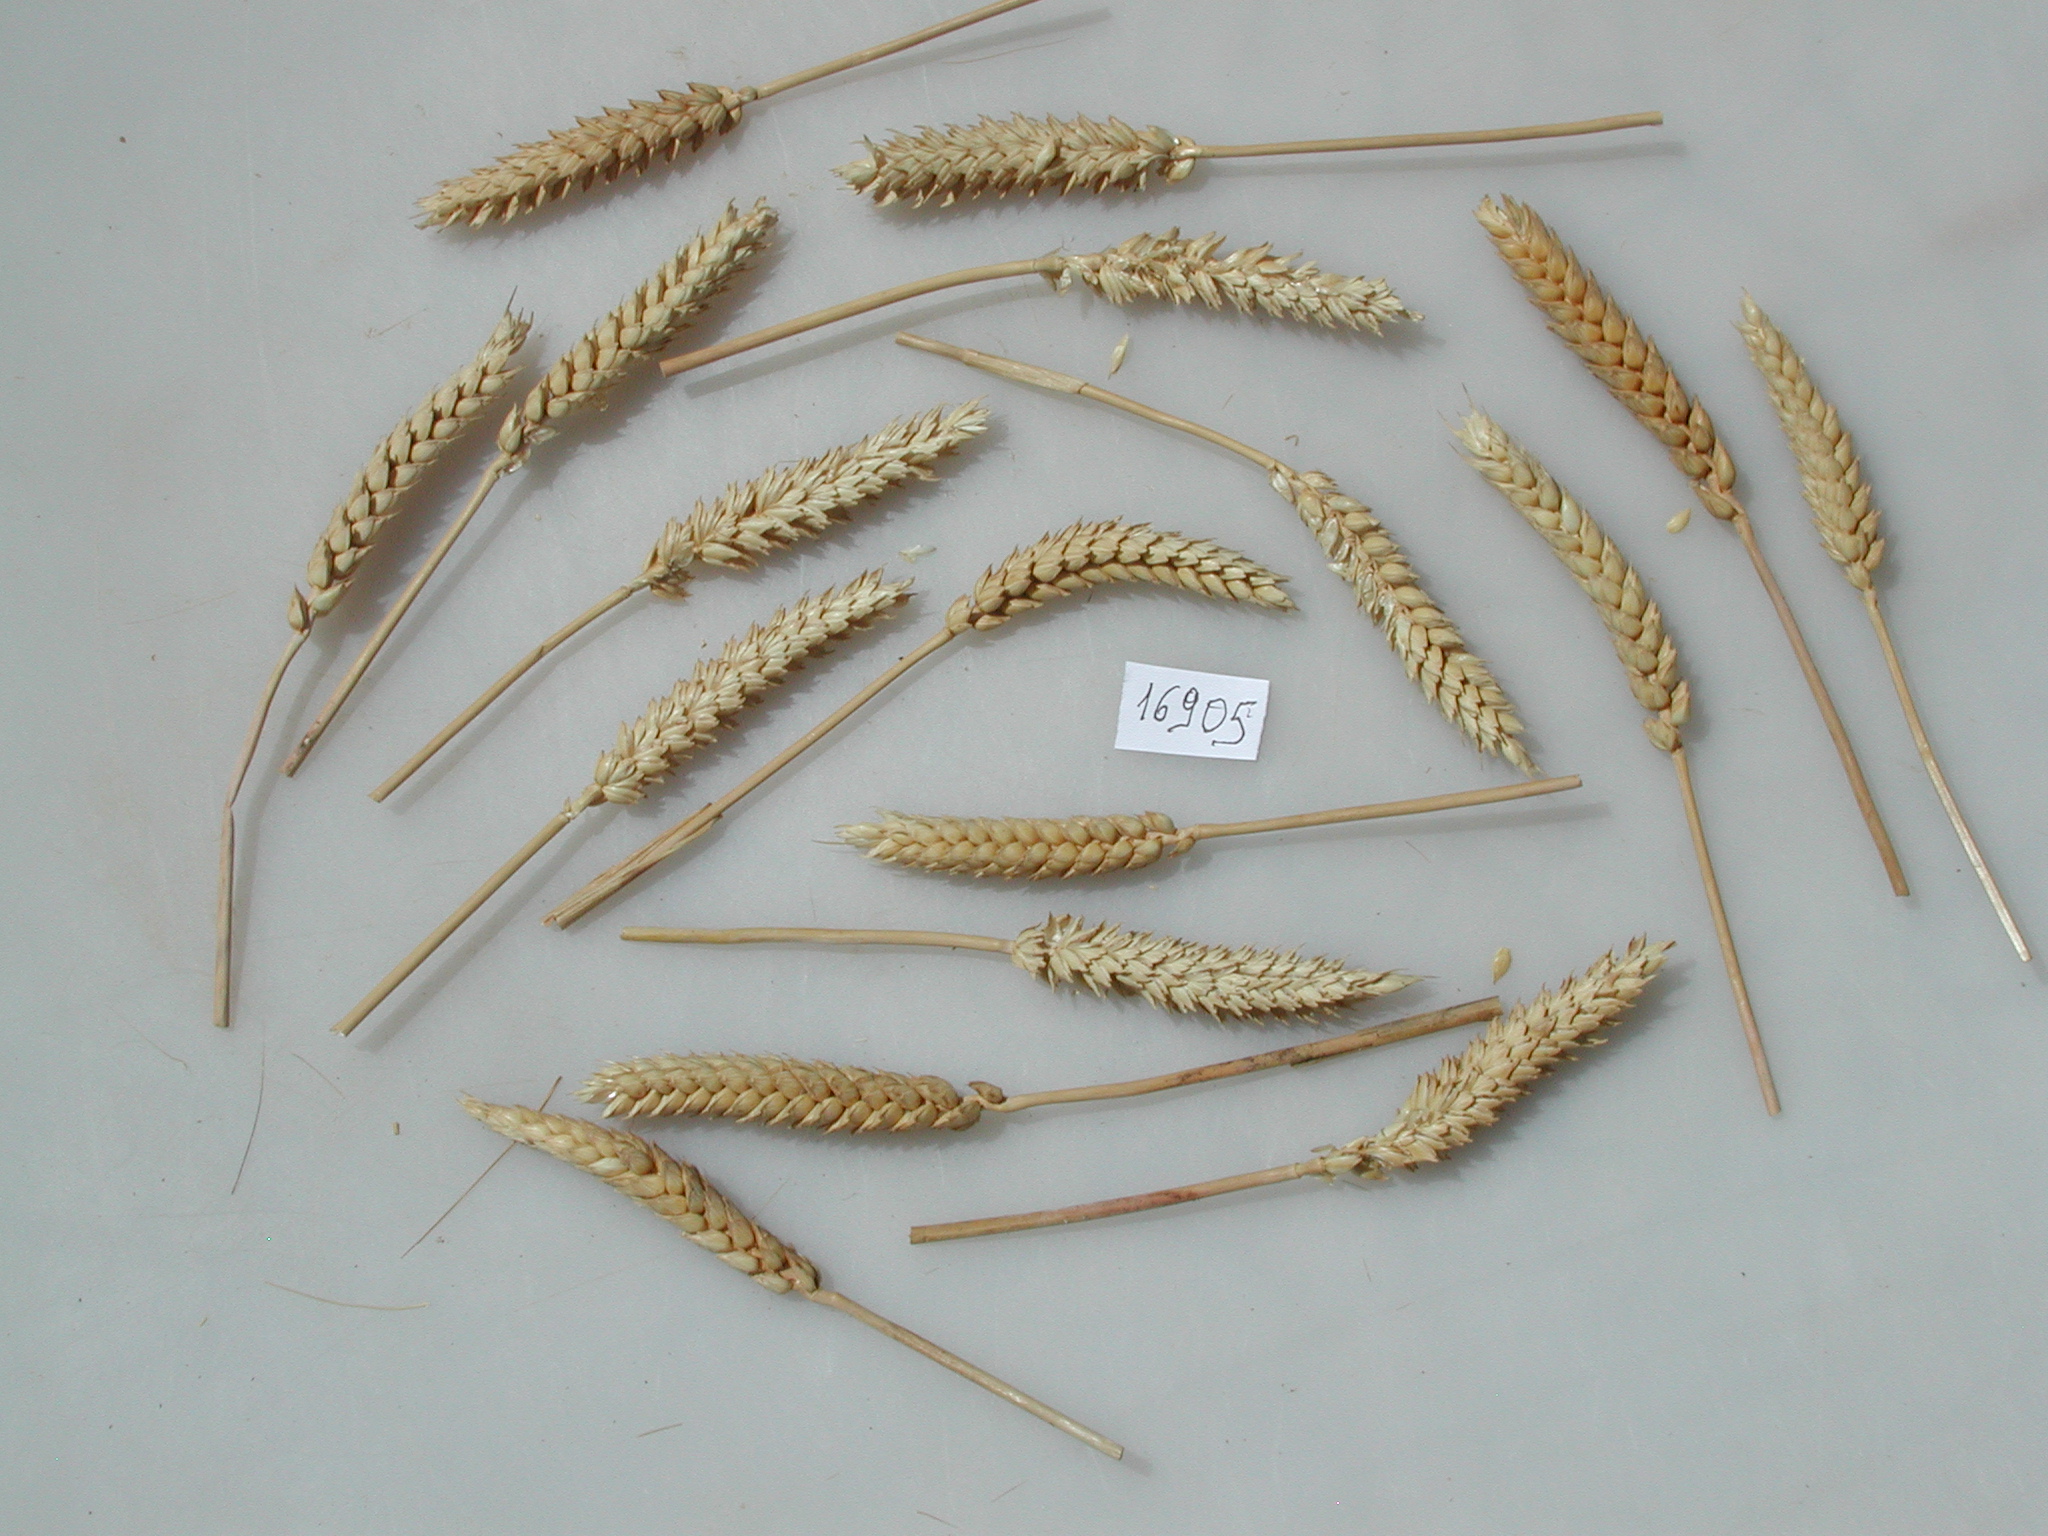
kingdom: Plantae
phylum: Tracheophyta
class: Liliopsida
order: Poales
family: Poaceae
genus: Triticum
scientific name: Triticum
